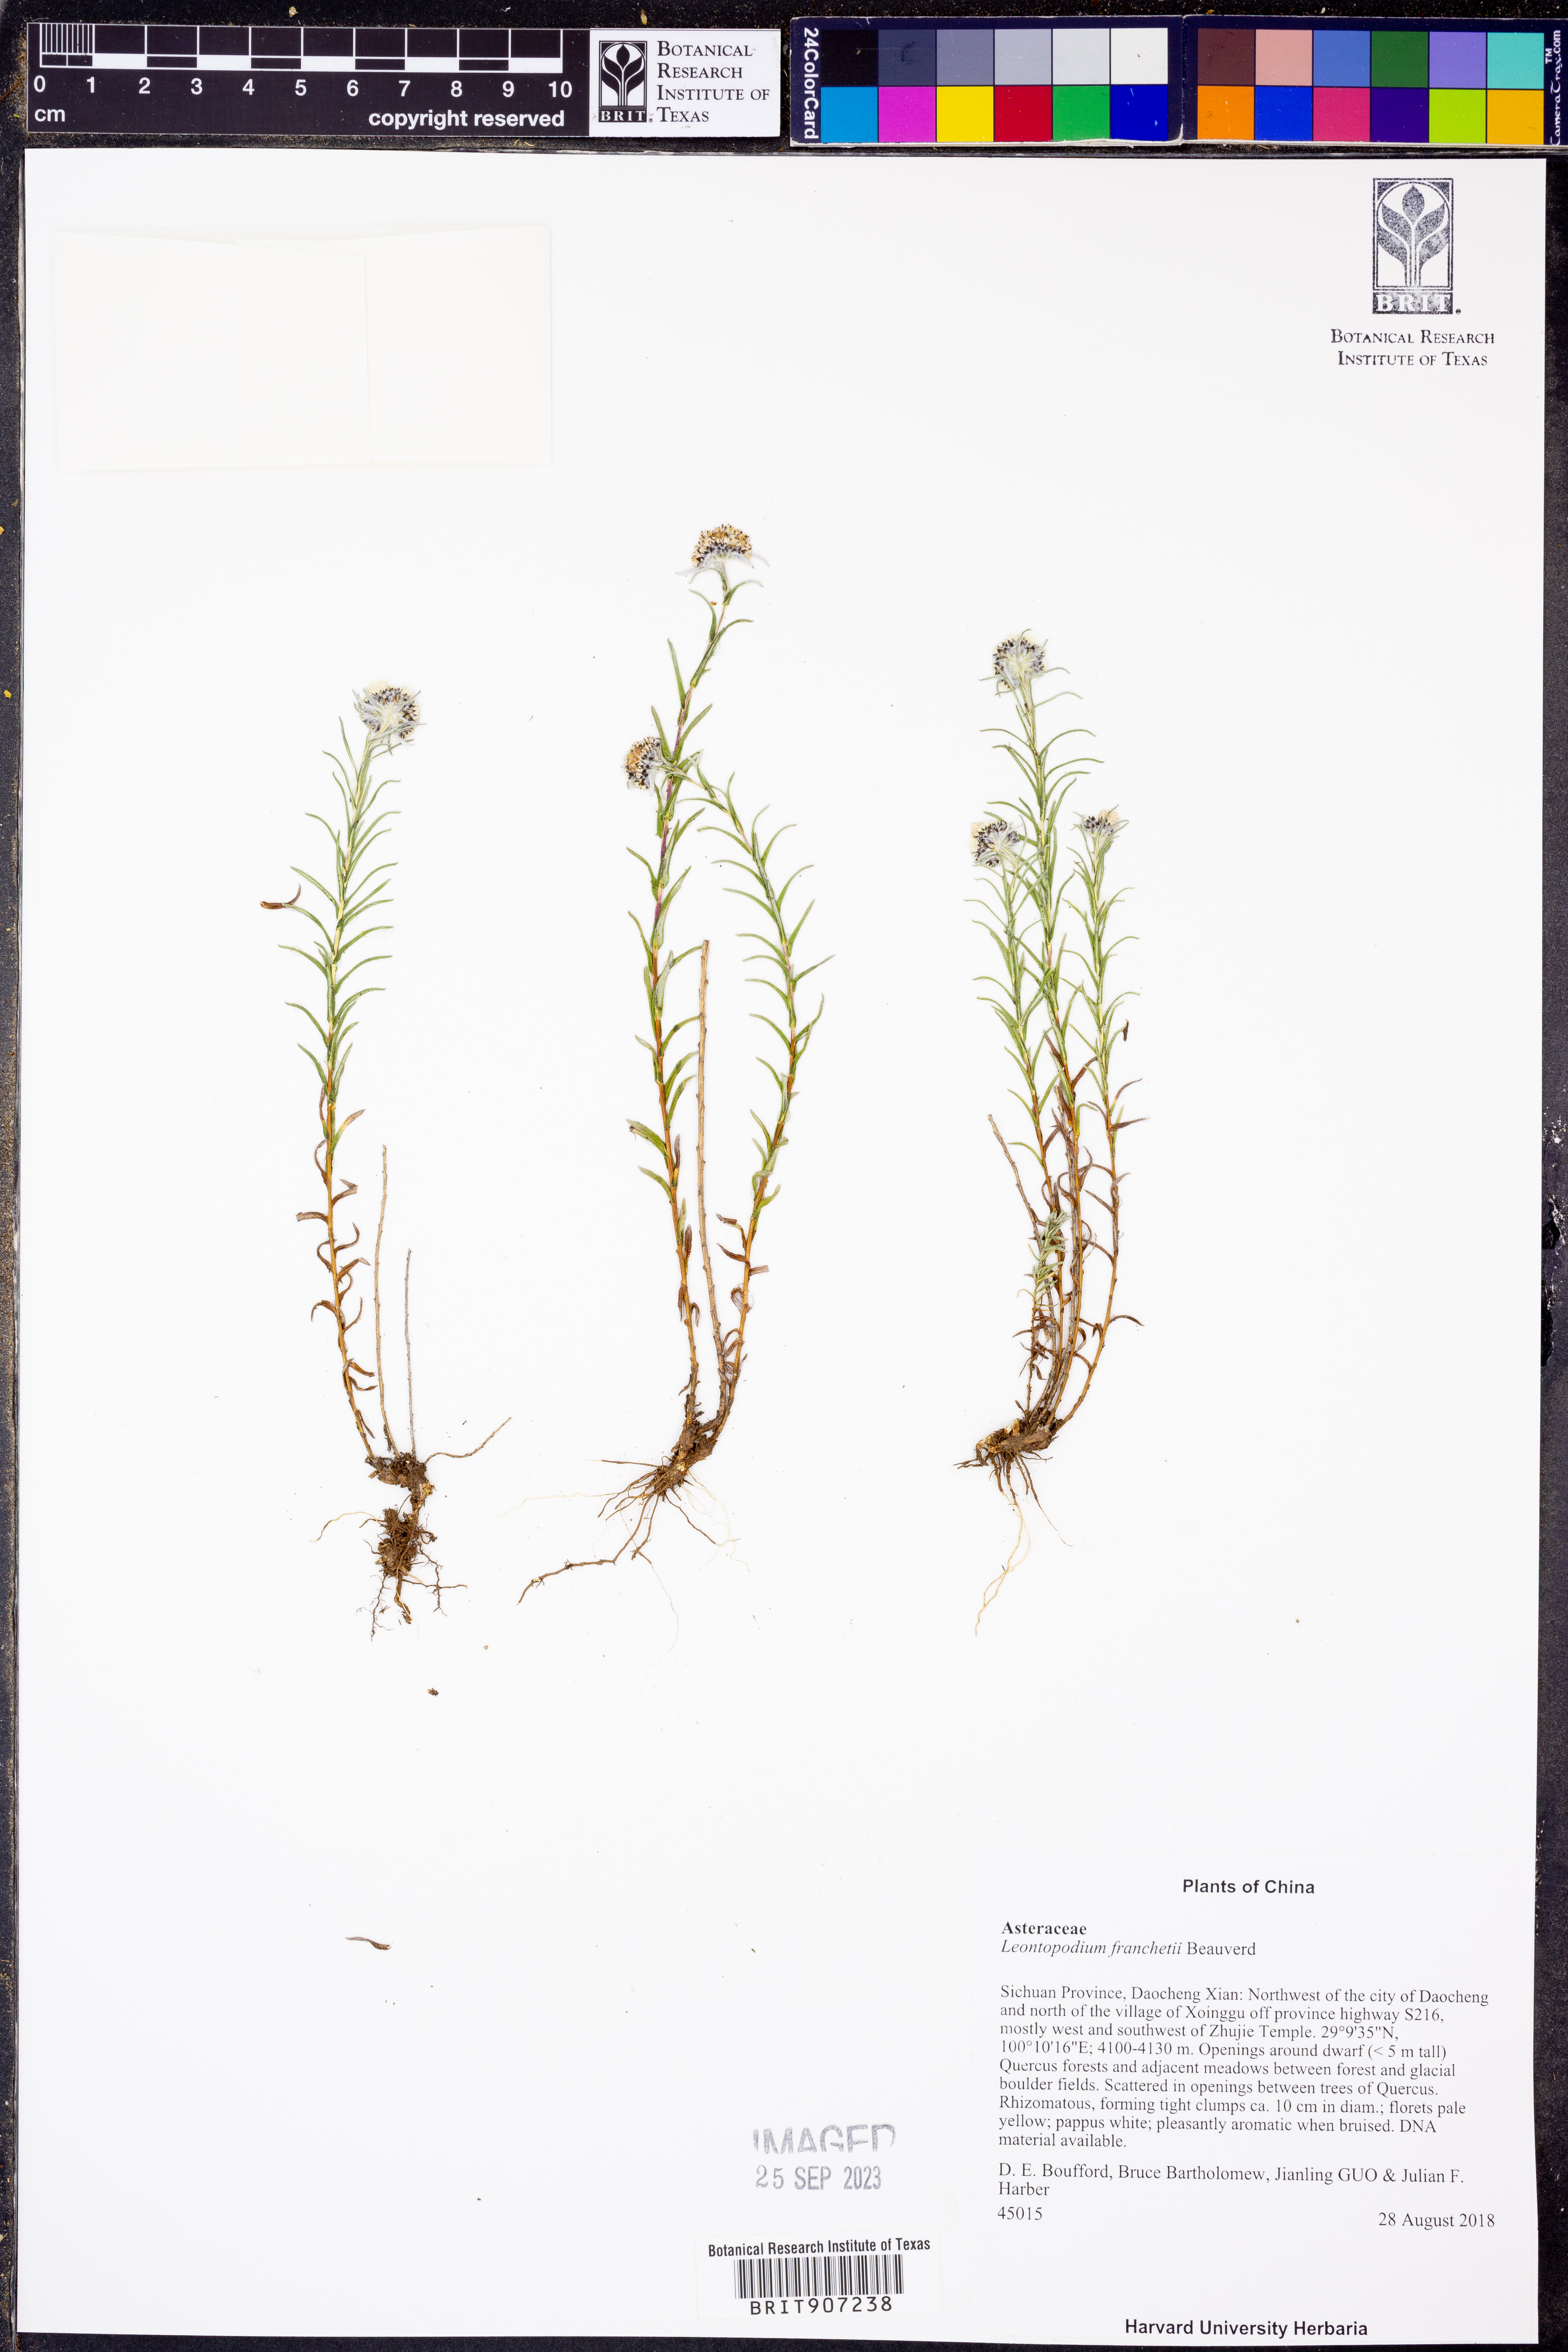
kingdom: Plantae
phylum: Tracheophyta
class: Magnoliopsida
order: Asterales
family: Asteraceae
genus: Leontopodium
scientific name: Leontopodium franchetii
